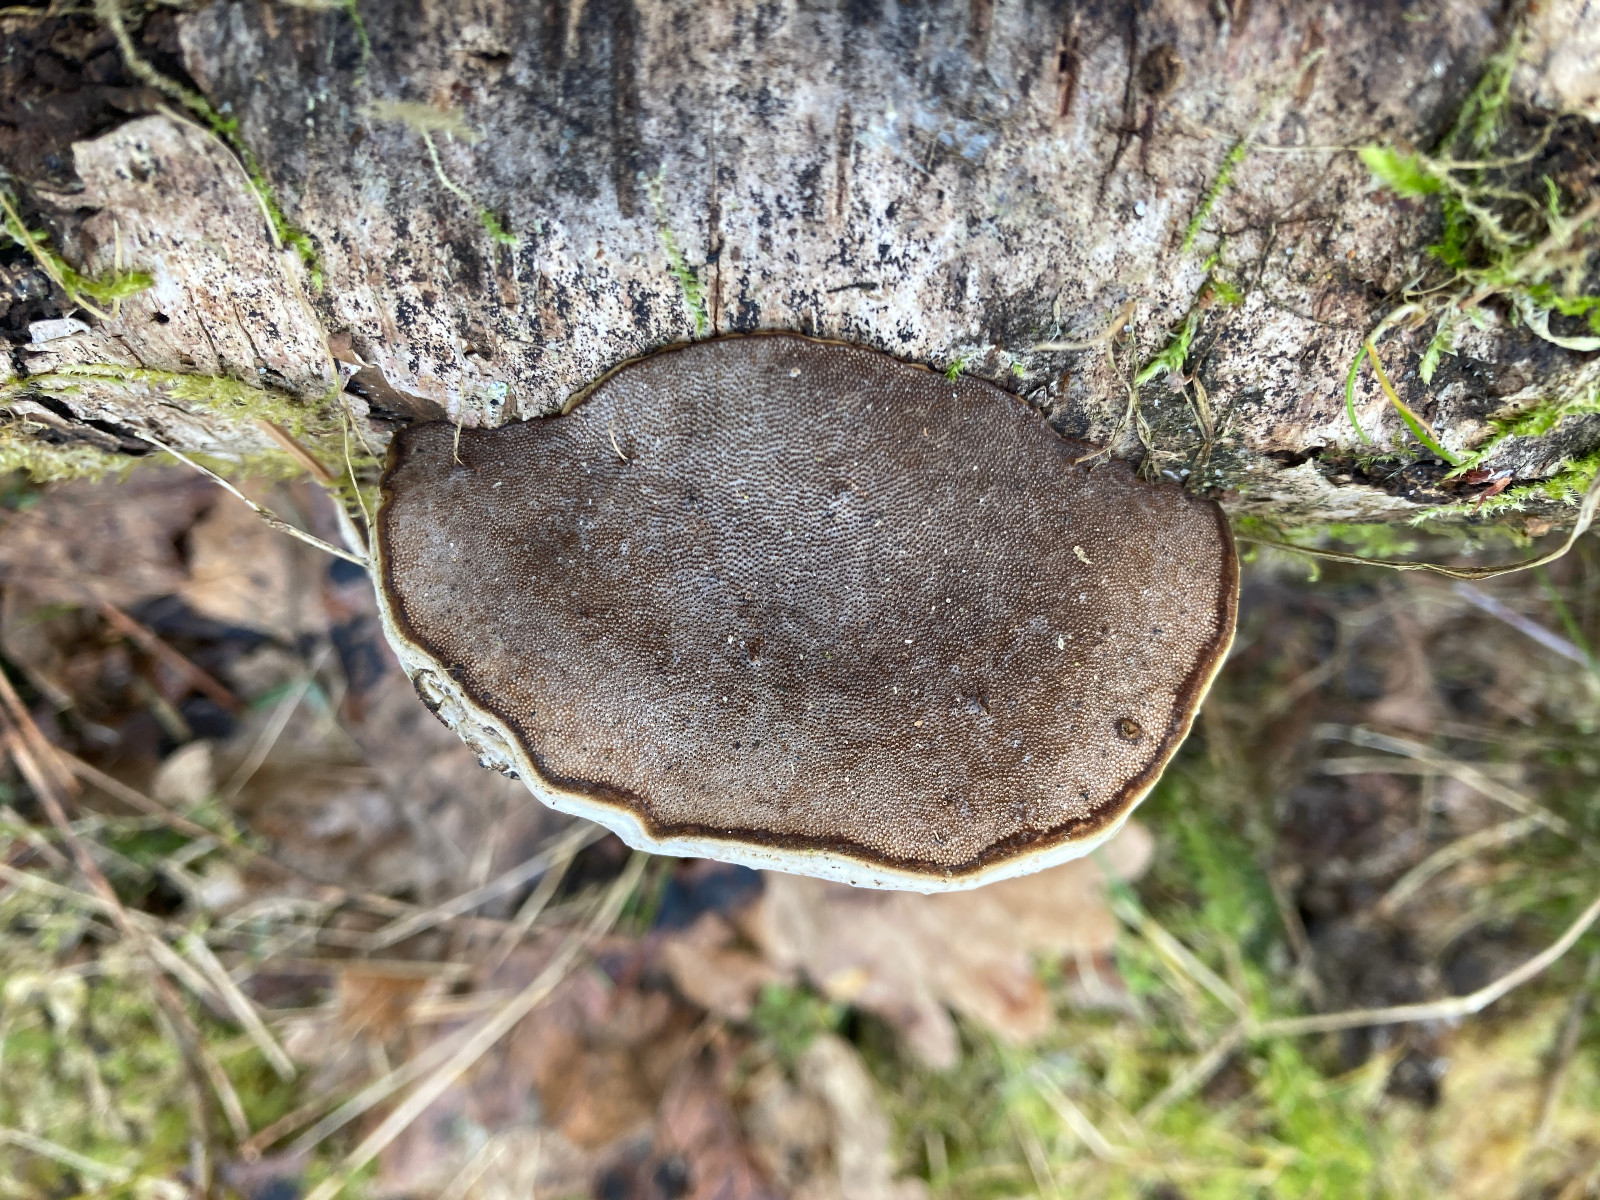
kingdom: Fungi
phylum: Basidiomycota
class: Agaricomycetes
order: Polyporales
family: Polyporaceae
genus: Fomes
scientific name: Fomes fomentarius
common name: tøndersvamp
